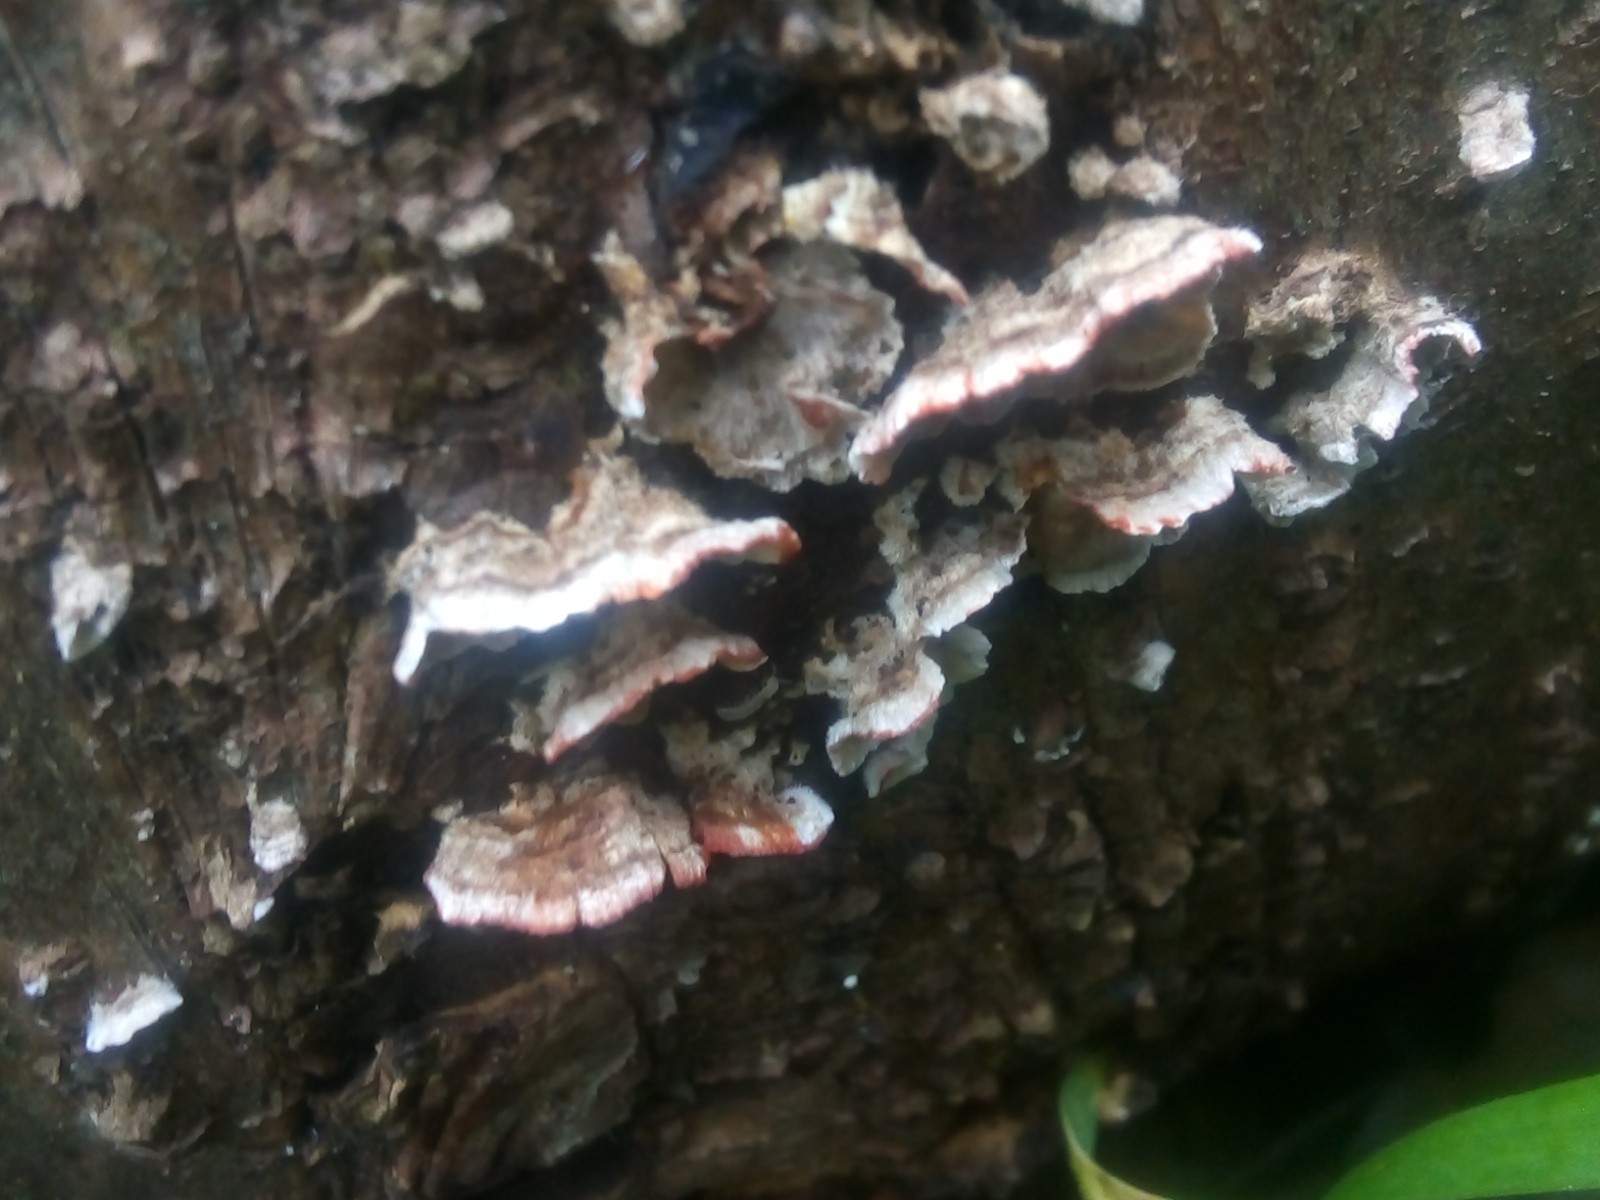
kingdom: Fungi
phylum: Basidiomycota
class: Agaricomycetes
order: Russulales
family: Stereaceae
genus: Stereum
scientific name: Stereum sanguinolentum
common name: blødende lædersvamp
